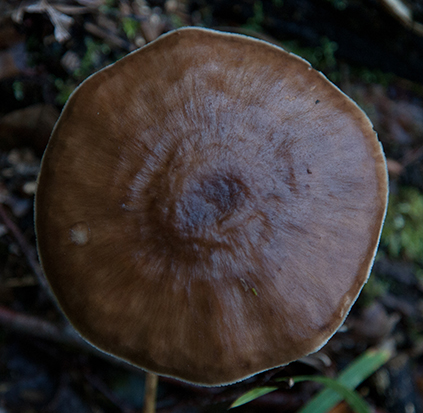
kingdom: Fungi
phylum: Basidiomycota
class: Agaricomycetes
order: Agaricales
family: Pluteaceae
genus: Pluteus
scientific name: Pluteus cervinus
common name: sodfarvet skærmhat
